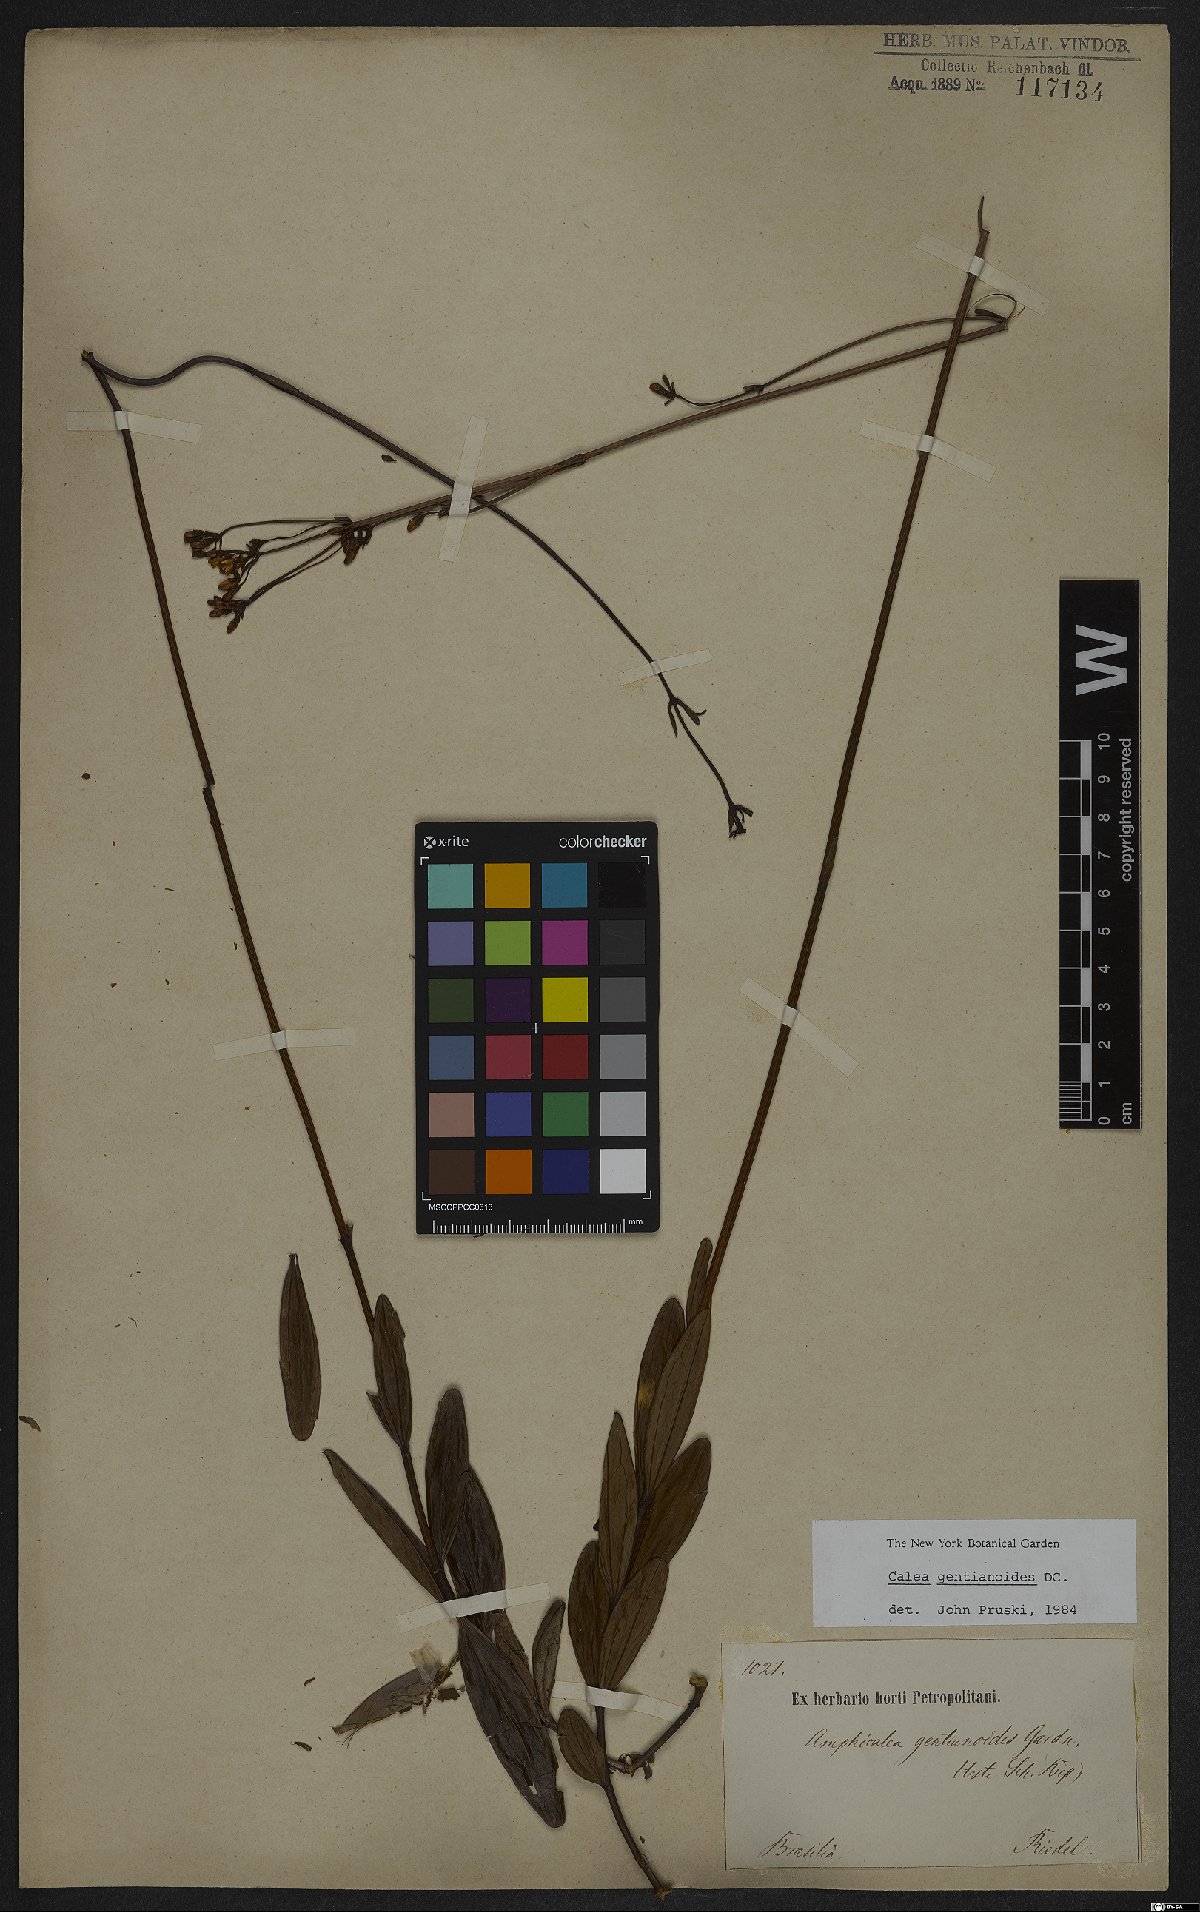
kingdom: Plantae
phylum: Tracheophyta
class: Magnoliopsida
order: Asterales
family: Asteraceae
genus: Calea
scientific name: Calea gentianoides
